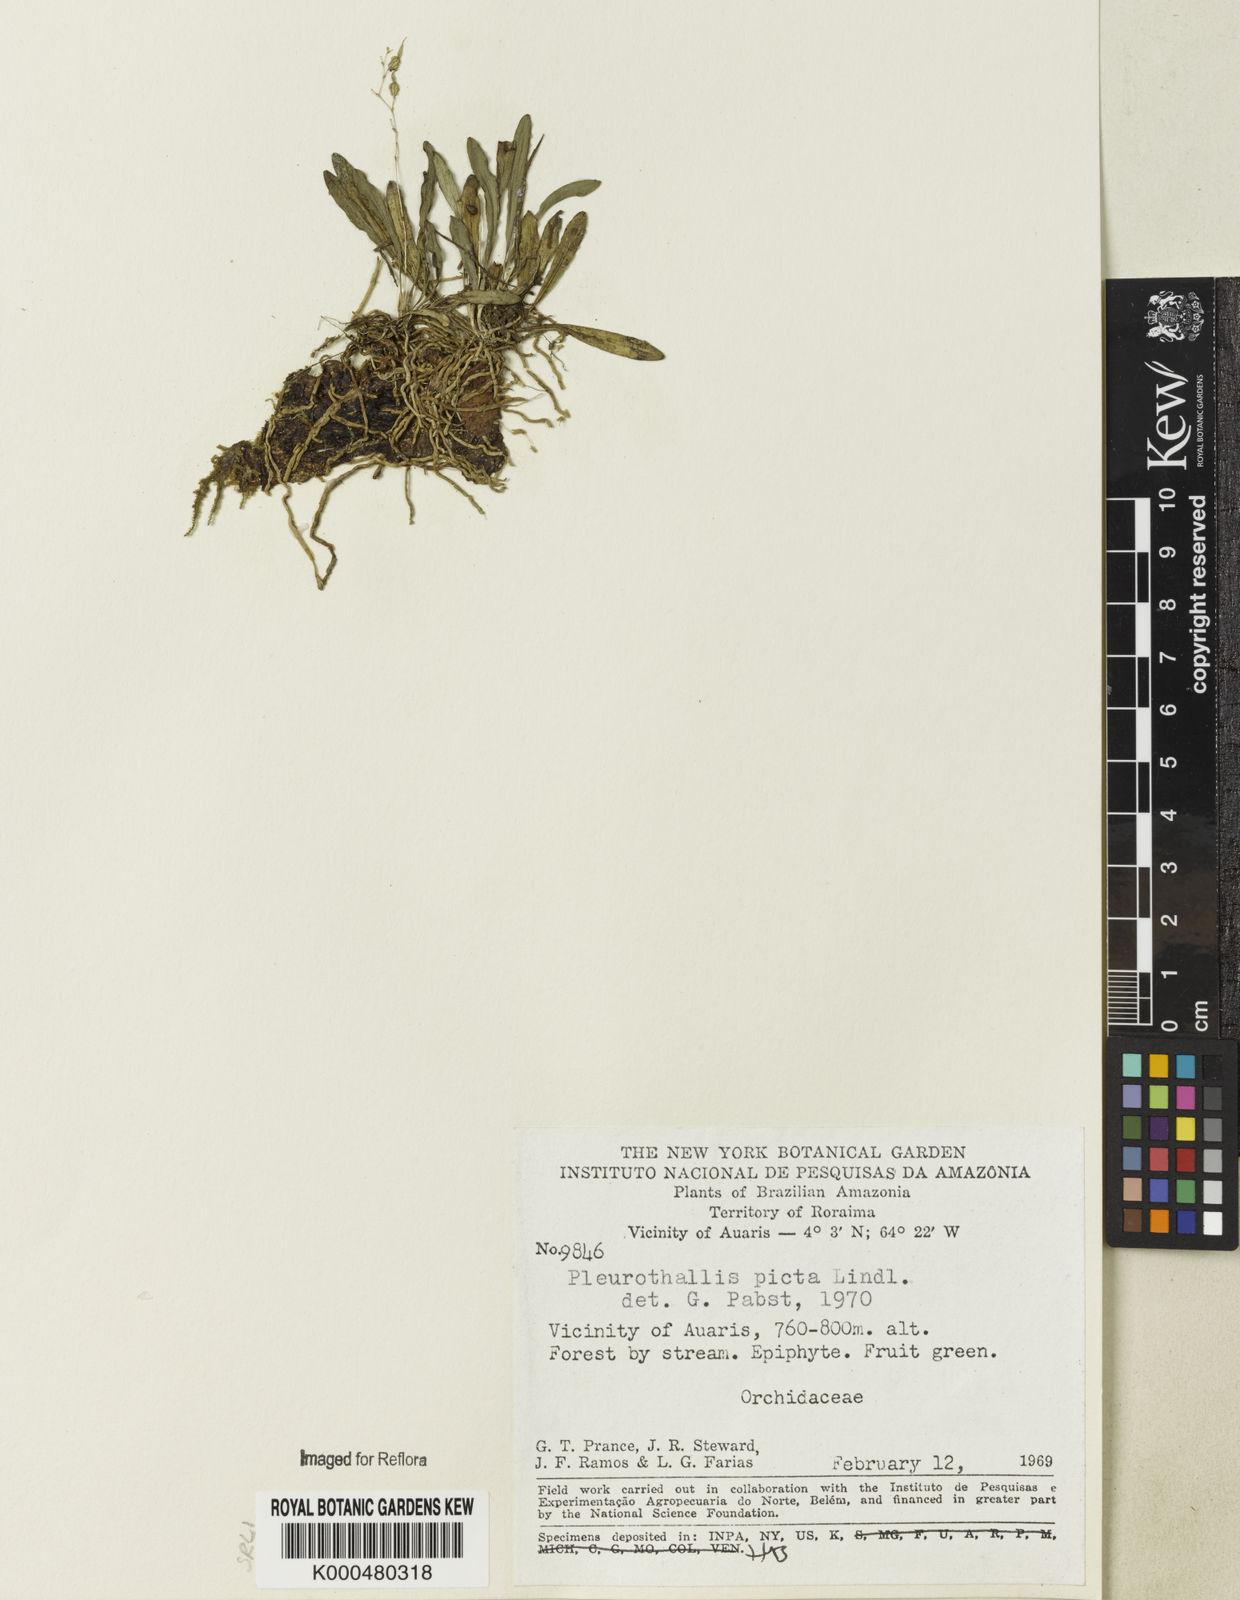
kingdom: Plantae
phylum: Tracheophyta
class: Liliopsida
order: Asparagales
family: Orchidaceae
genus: Specklinia
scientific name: Specklinia picta
